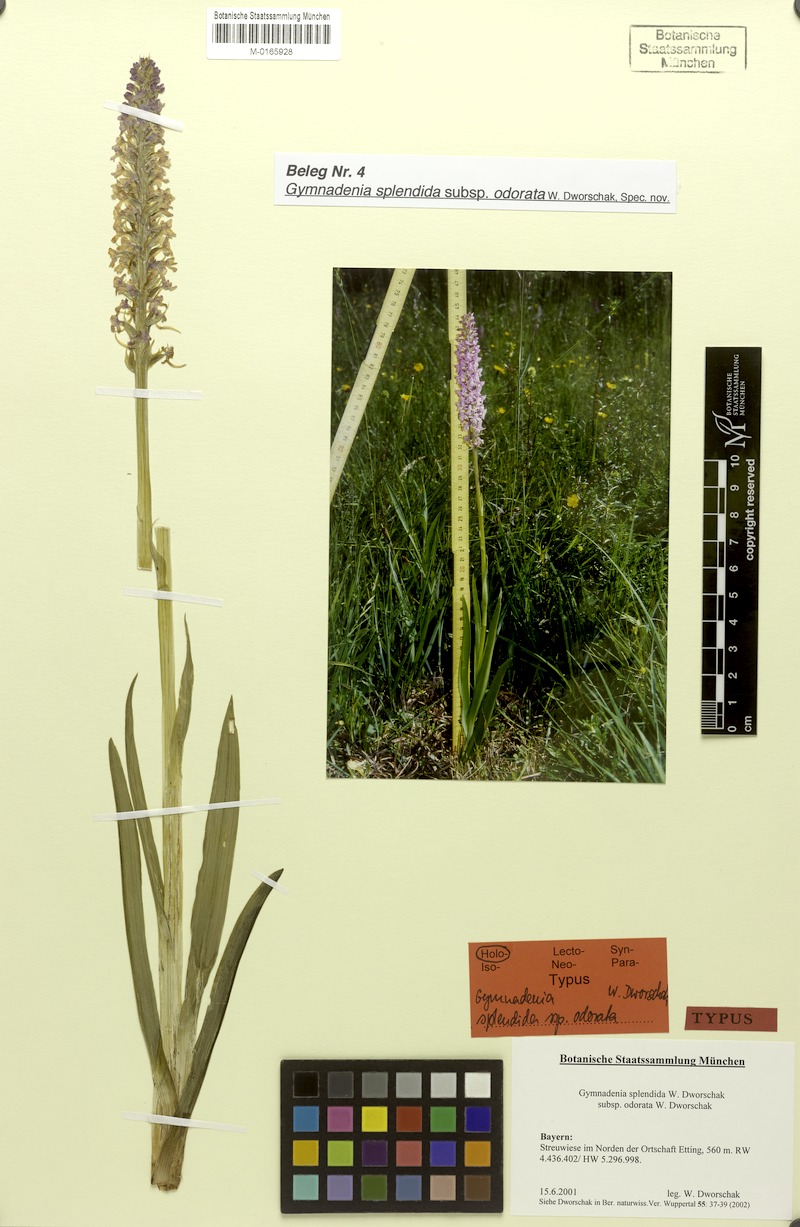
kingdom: Plantae
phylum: Tracheophyta
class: Liliopsida
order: Asparagales
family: Orchidaceae
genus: Gymnadenia
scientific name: Gymnadenia conopsea
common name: Fragrant orchid
